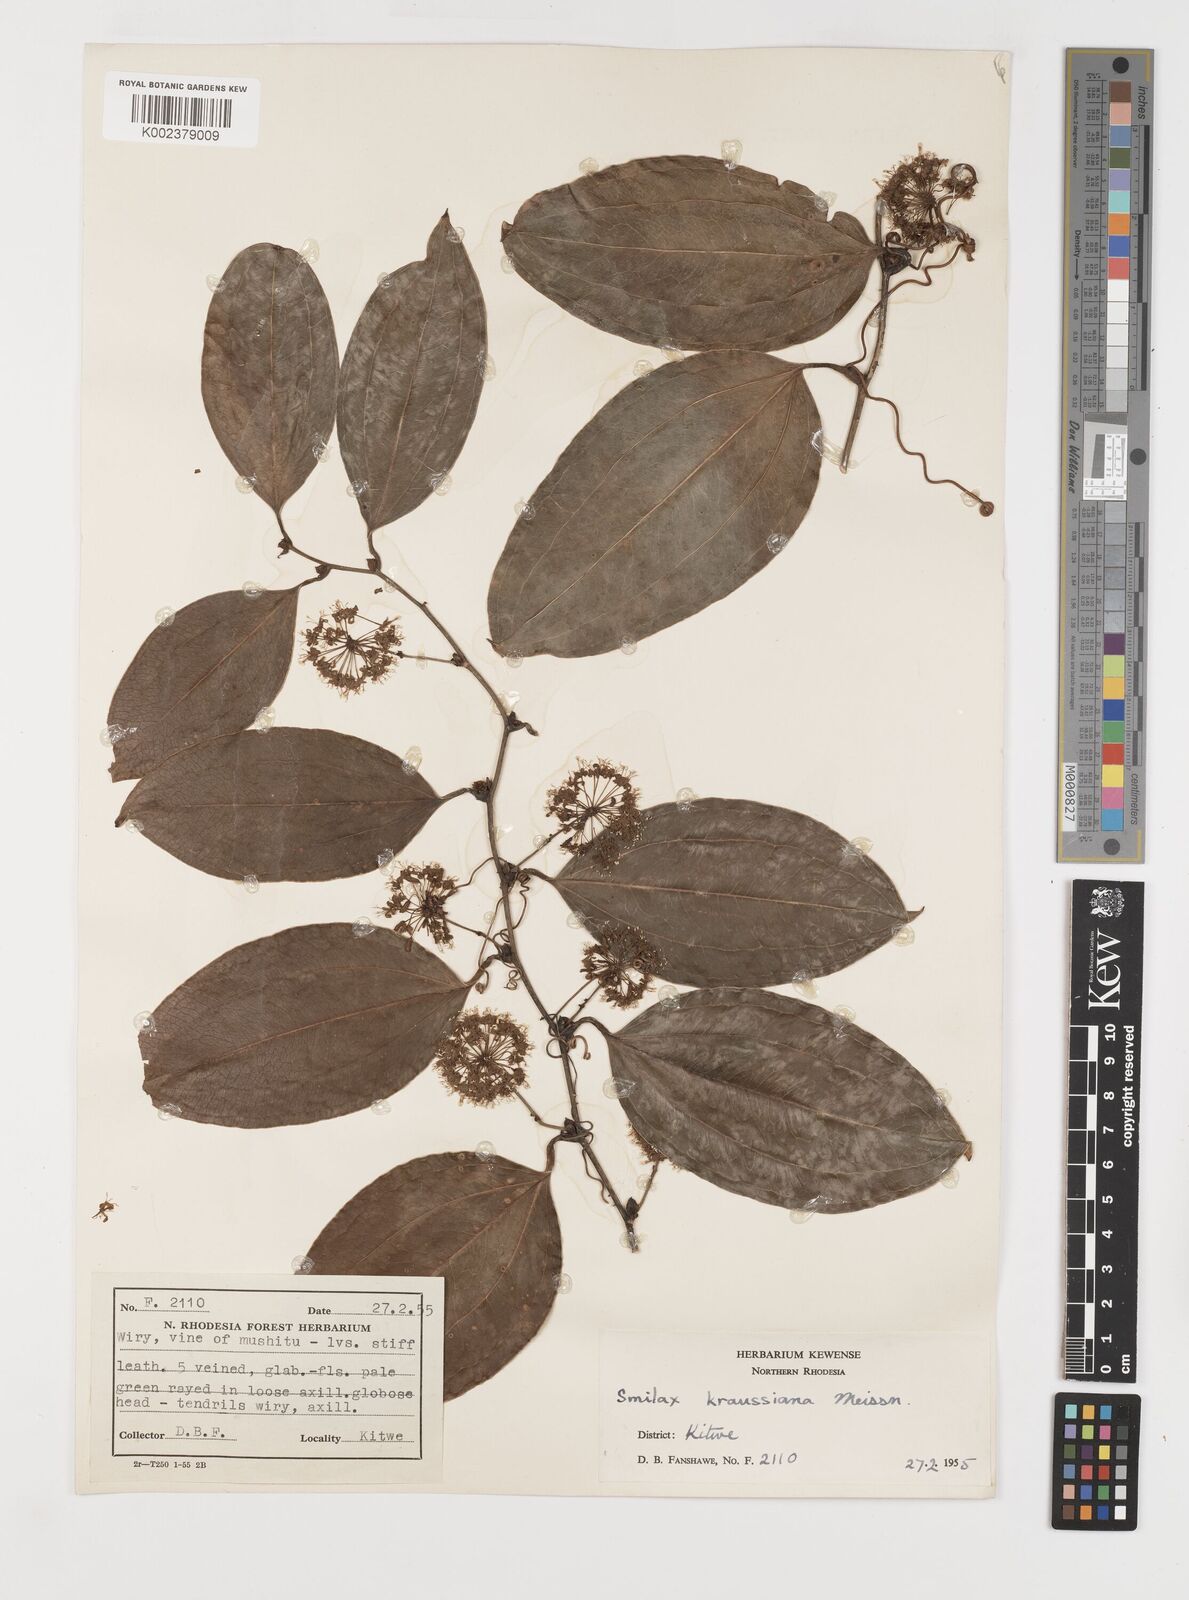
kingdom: Plantae
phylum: Tracheophyta
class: Liliopsida
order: Liliales
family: Smilacaceae
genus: Smilax
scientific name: Smilax anceps
